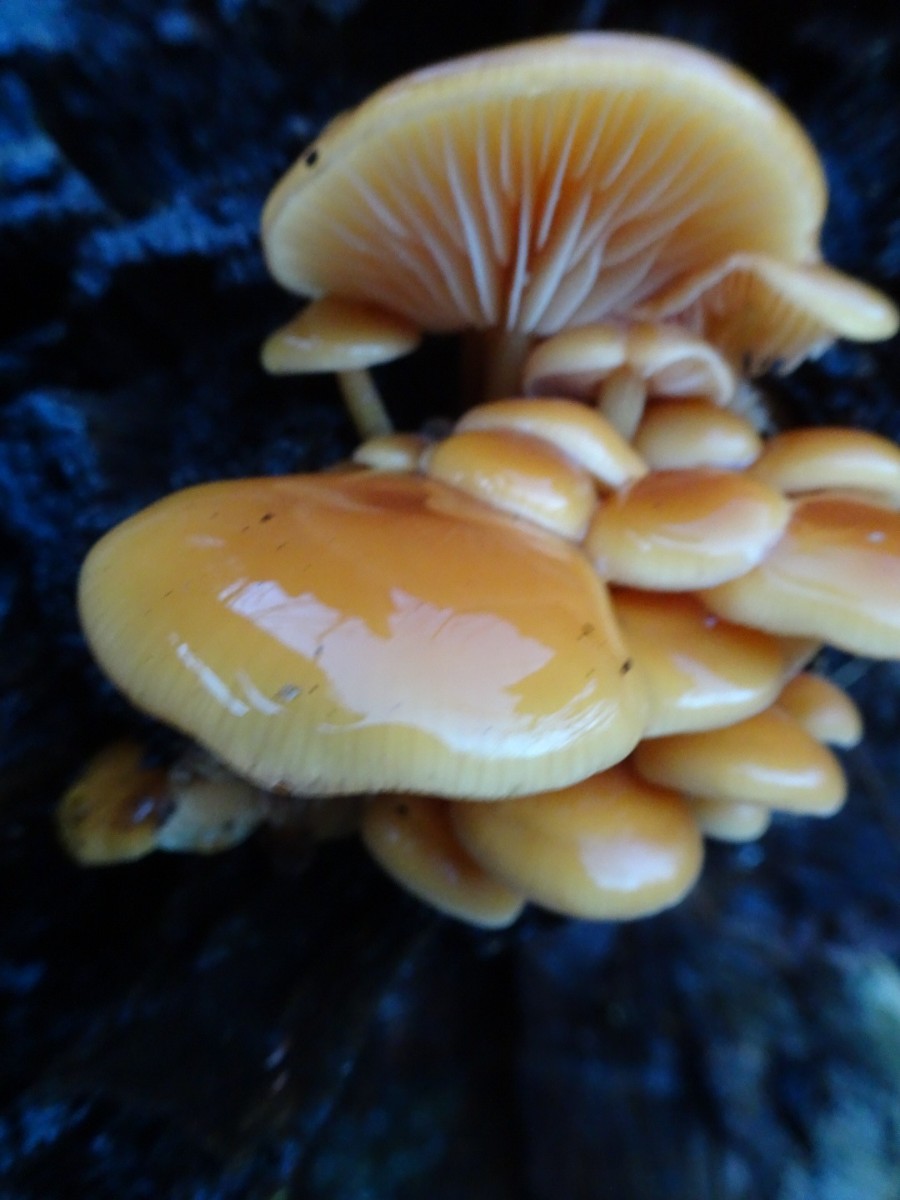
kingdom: Fungi
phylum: Basidiomycota
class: Agaricomycetes
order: Agaricales
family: Physalacriaceae
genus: Flammulina
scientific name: Flammulina velutipes
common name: gul fløjlsfod
